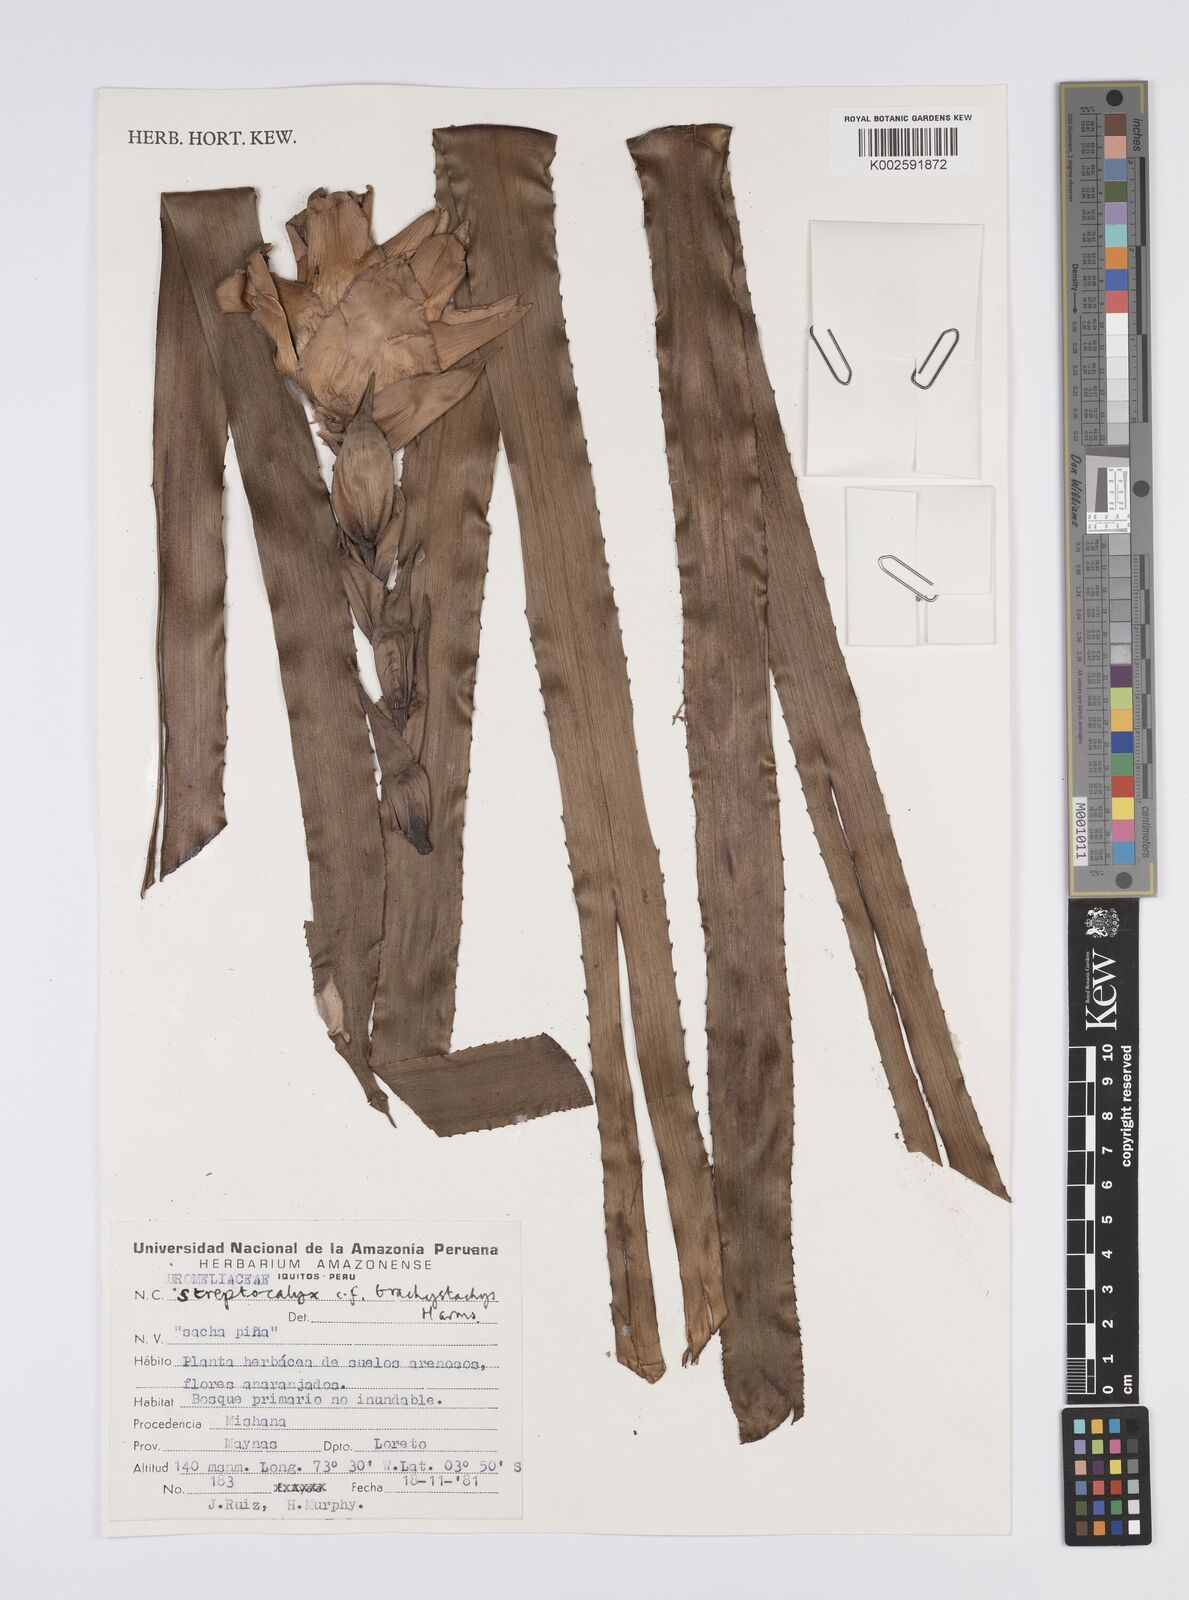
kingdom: Plantae
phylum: Tracheophyta
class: Liliopsida
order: Poales
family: Bromeliaceae
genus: Aechmea
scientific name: Aechmea brachystachys
